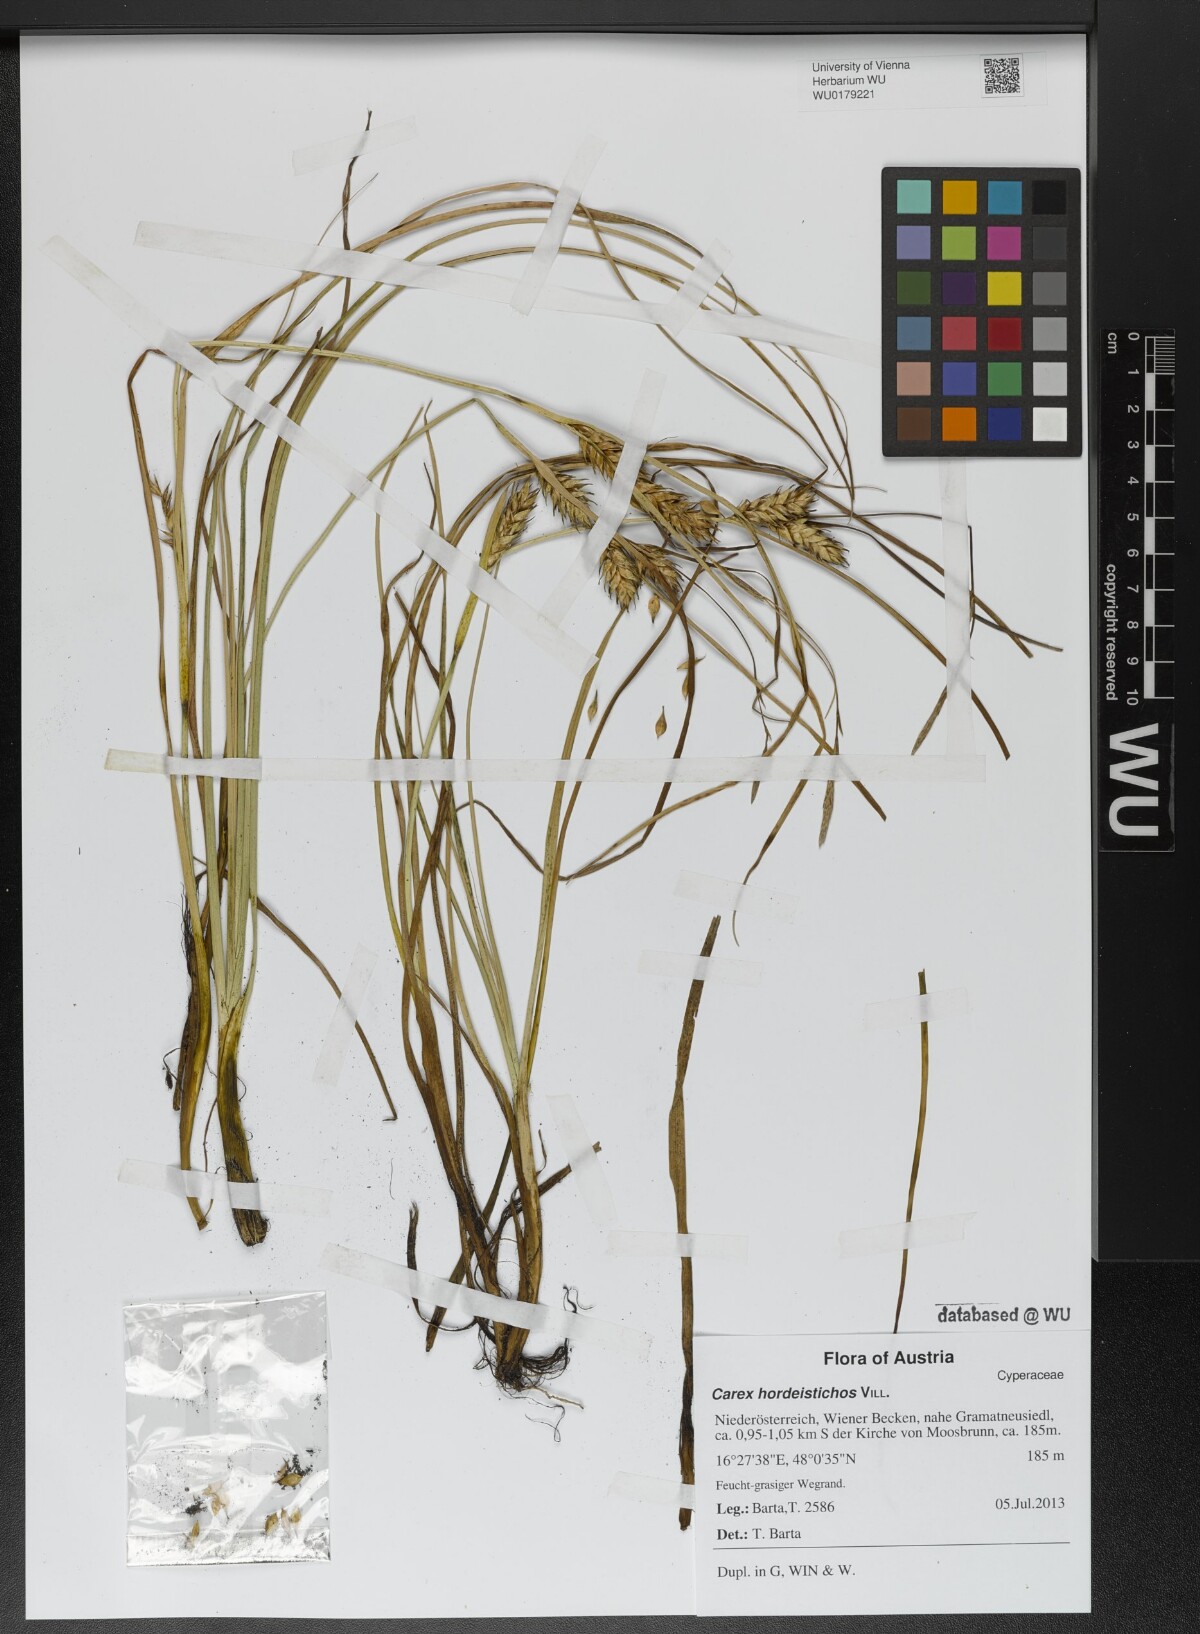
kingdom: Plantae
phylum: Tracheophyta
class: Liliopsida
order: Poales
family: Cyperaceae
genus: Carex
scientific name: Carex hordeistichos
